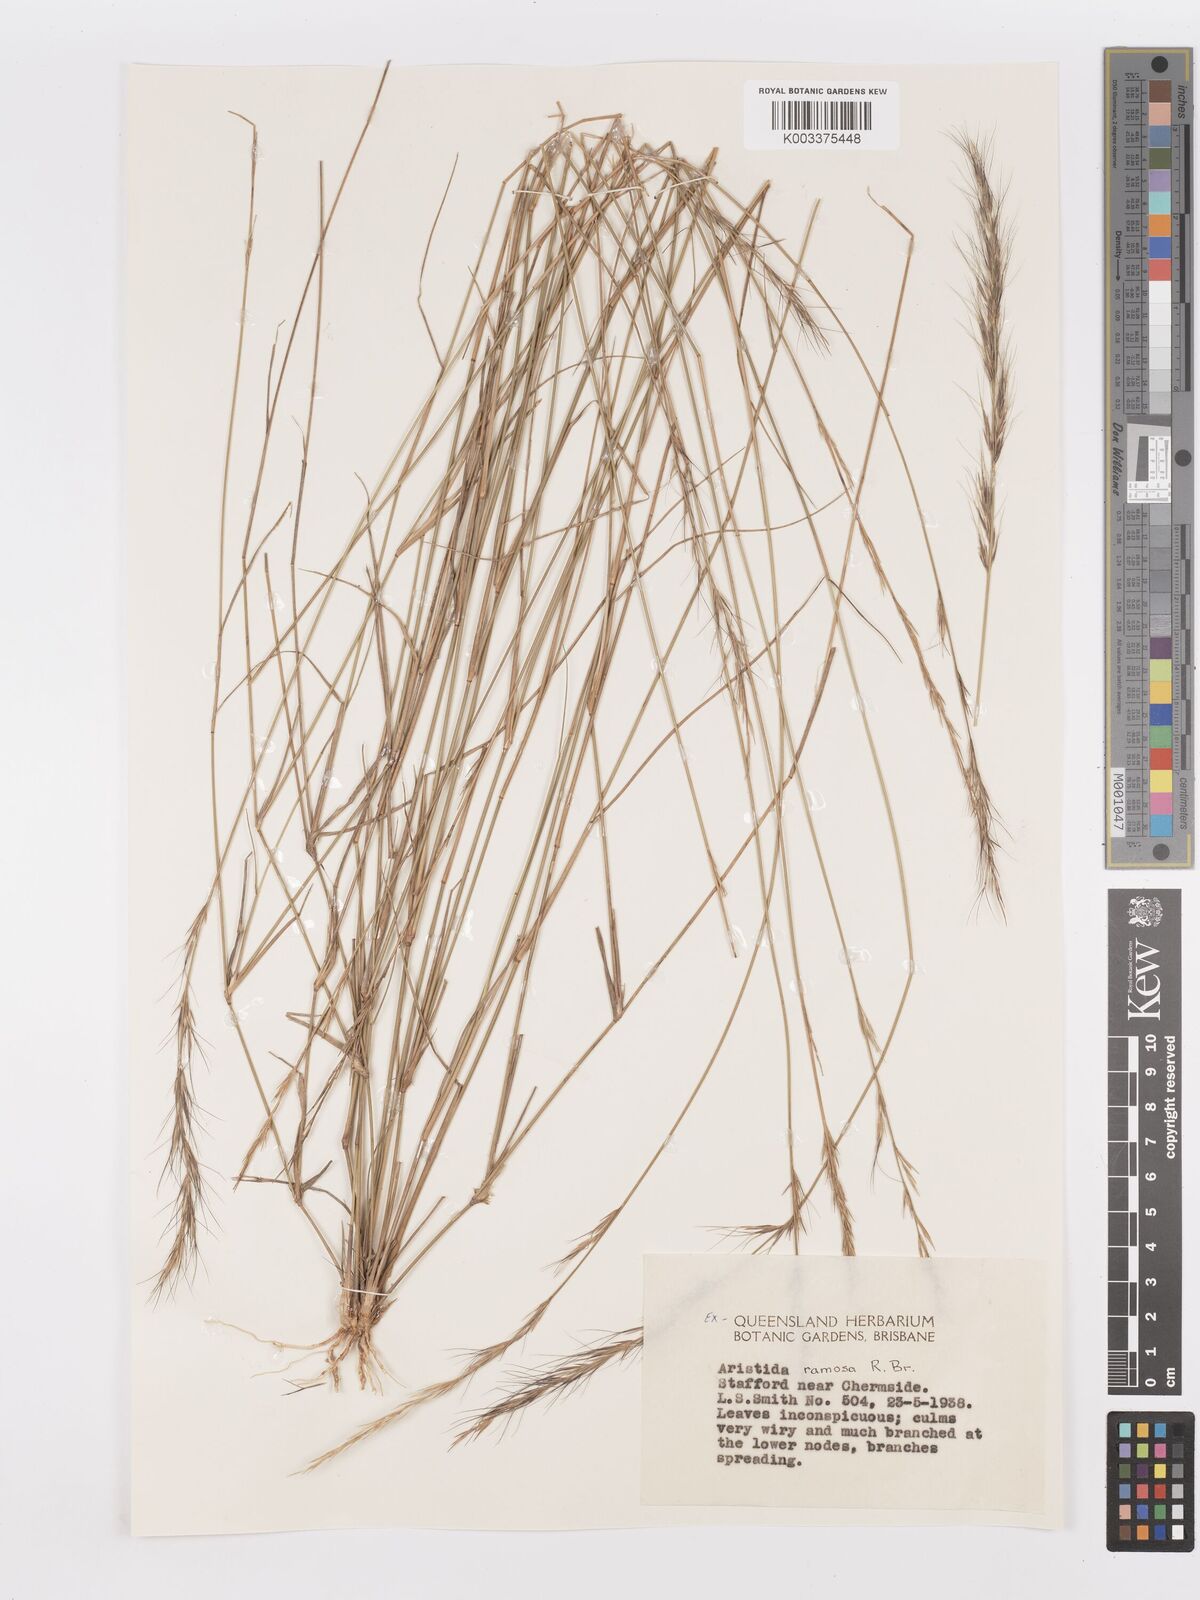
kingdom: Plantae
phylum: Tracheophyta
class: Liliopsida
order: Poales
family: Poaceae
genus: Aristida
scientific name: Aristida ramosa
